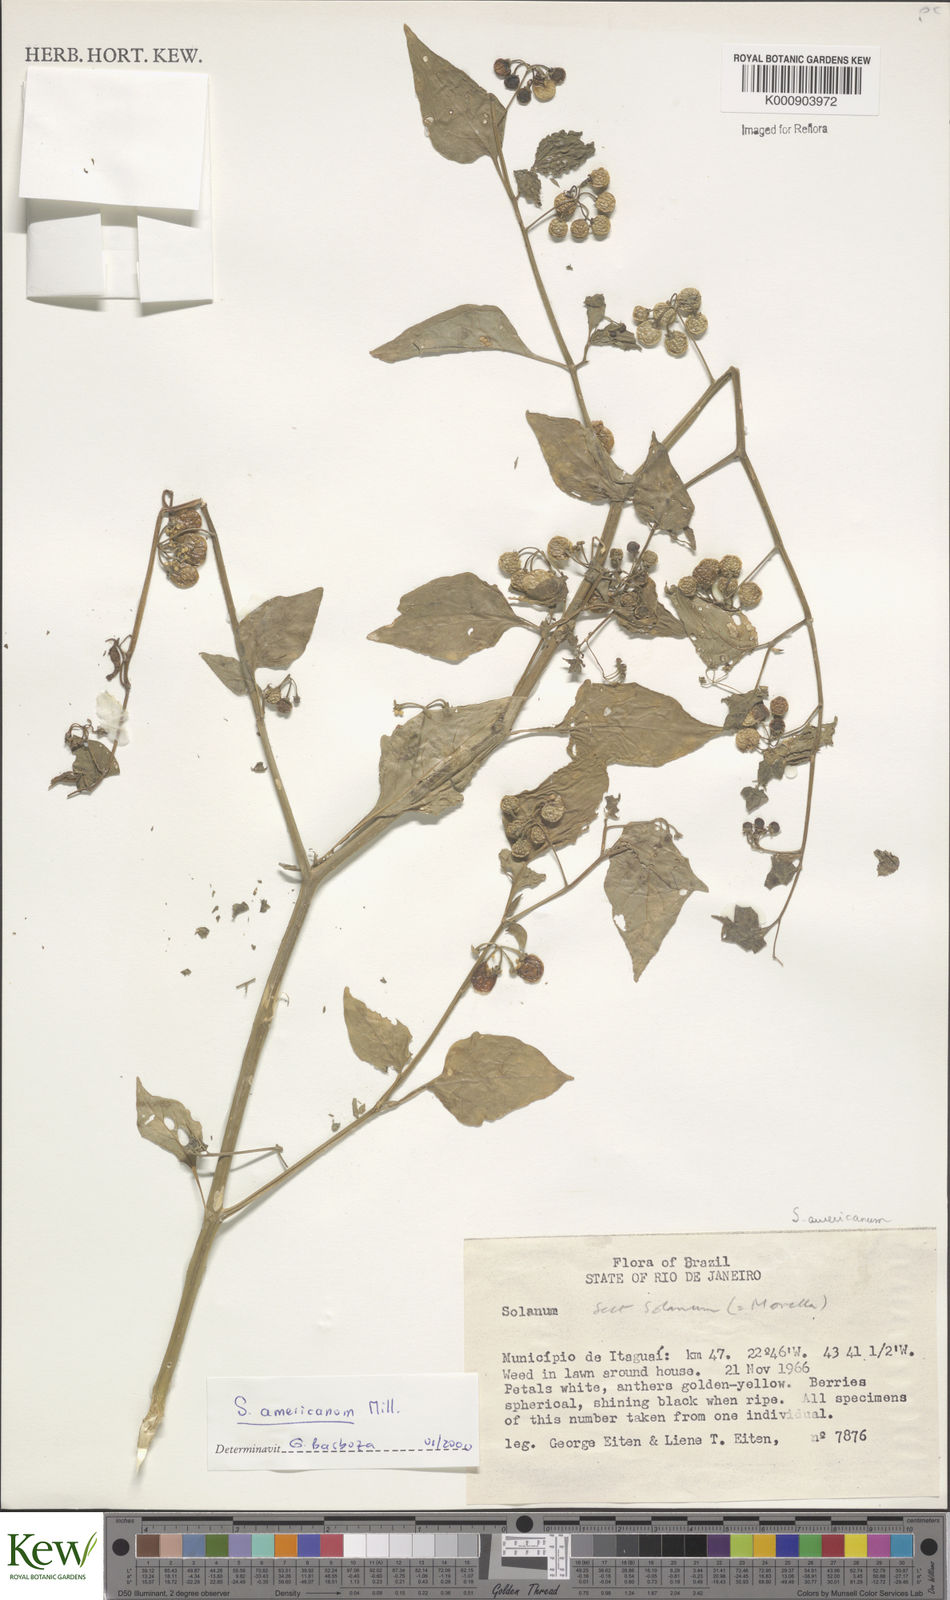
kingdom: Plantae
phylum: Tracheophyta
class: Magnoliopsida
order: Solanales
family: Solanaceae
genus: Solanum
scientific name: Solanum americanum
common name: American black nightshade
